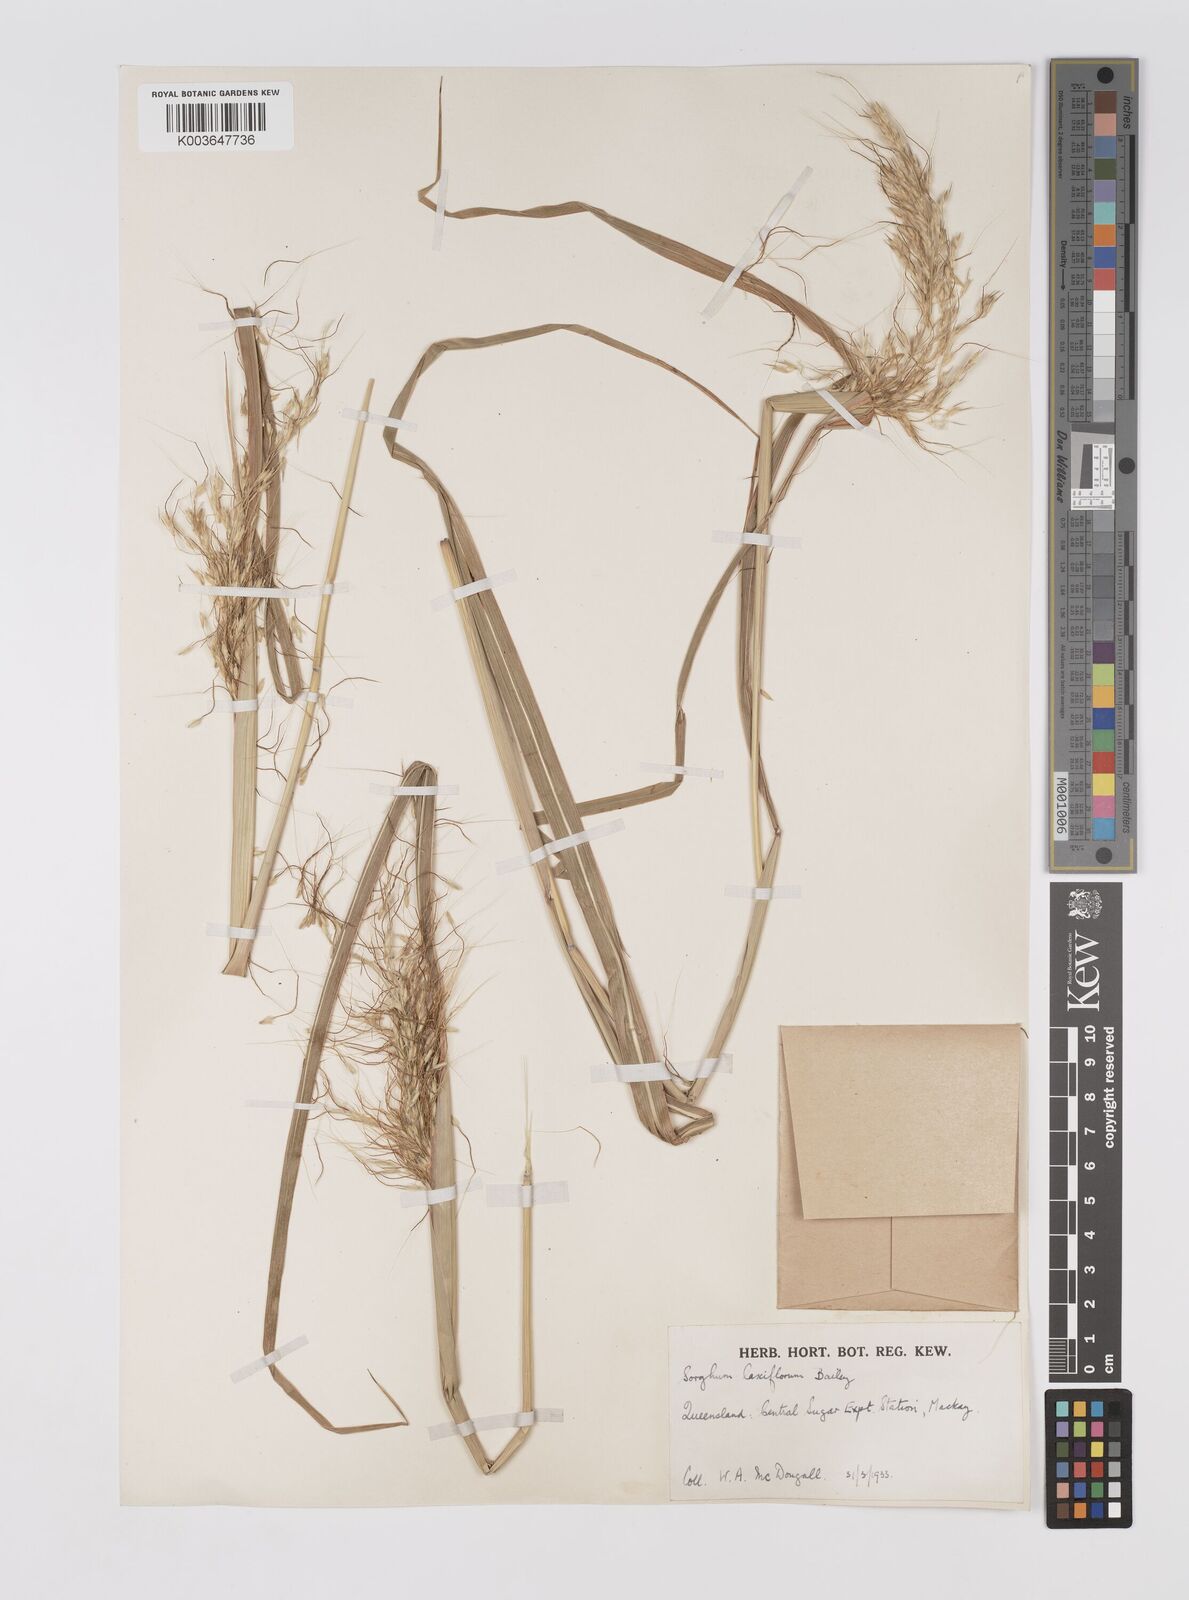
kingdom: Plantae
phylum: Tracheophyta
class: Liliopsida
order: Poales
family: Poaceae
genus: Sorghum
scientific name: Sorghum laxiflorum
